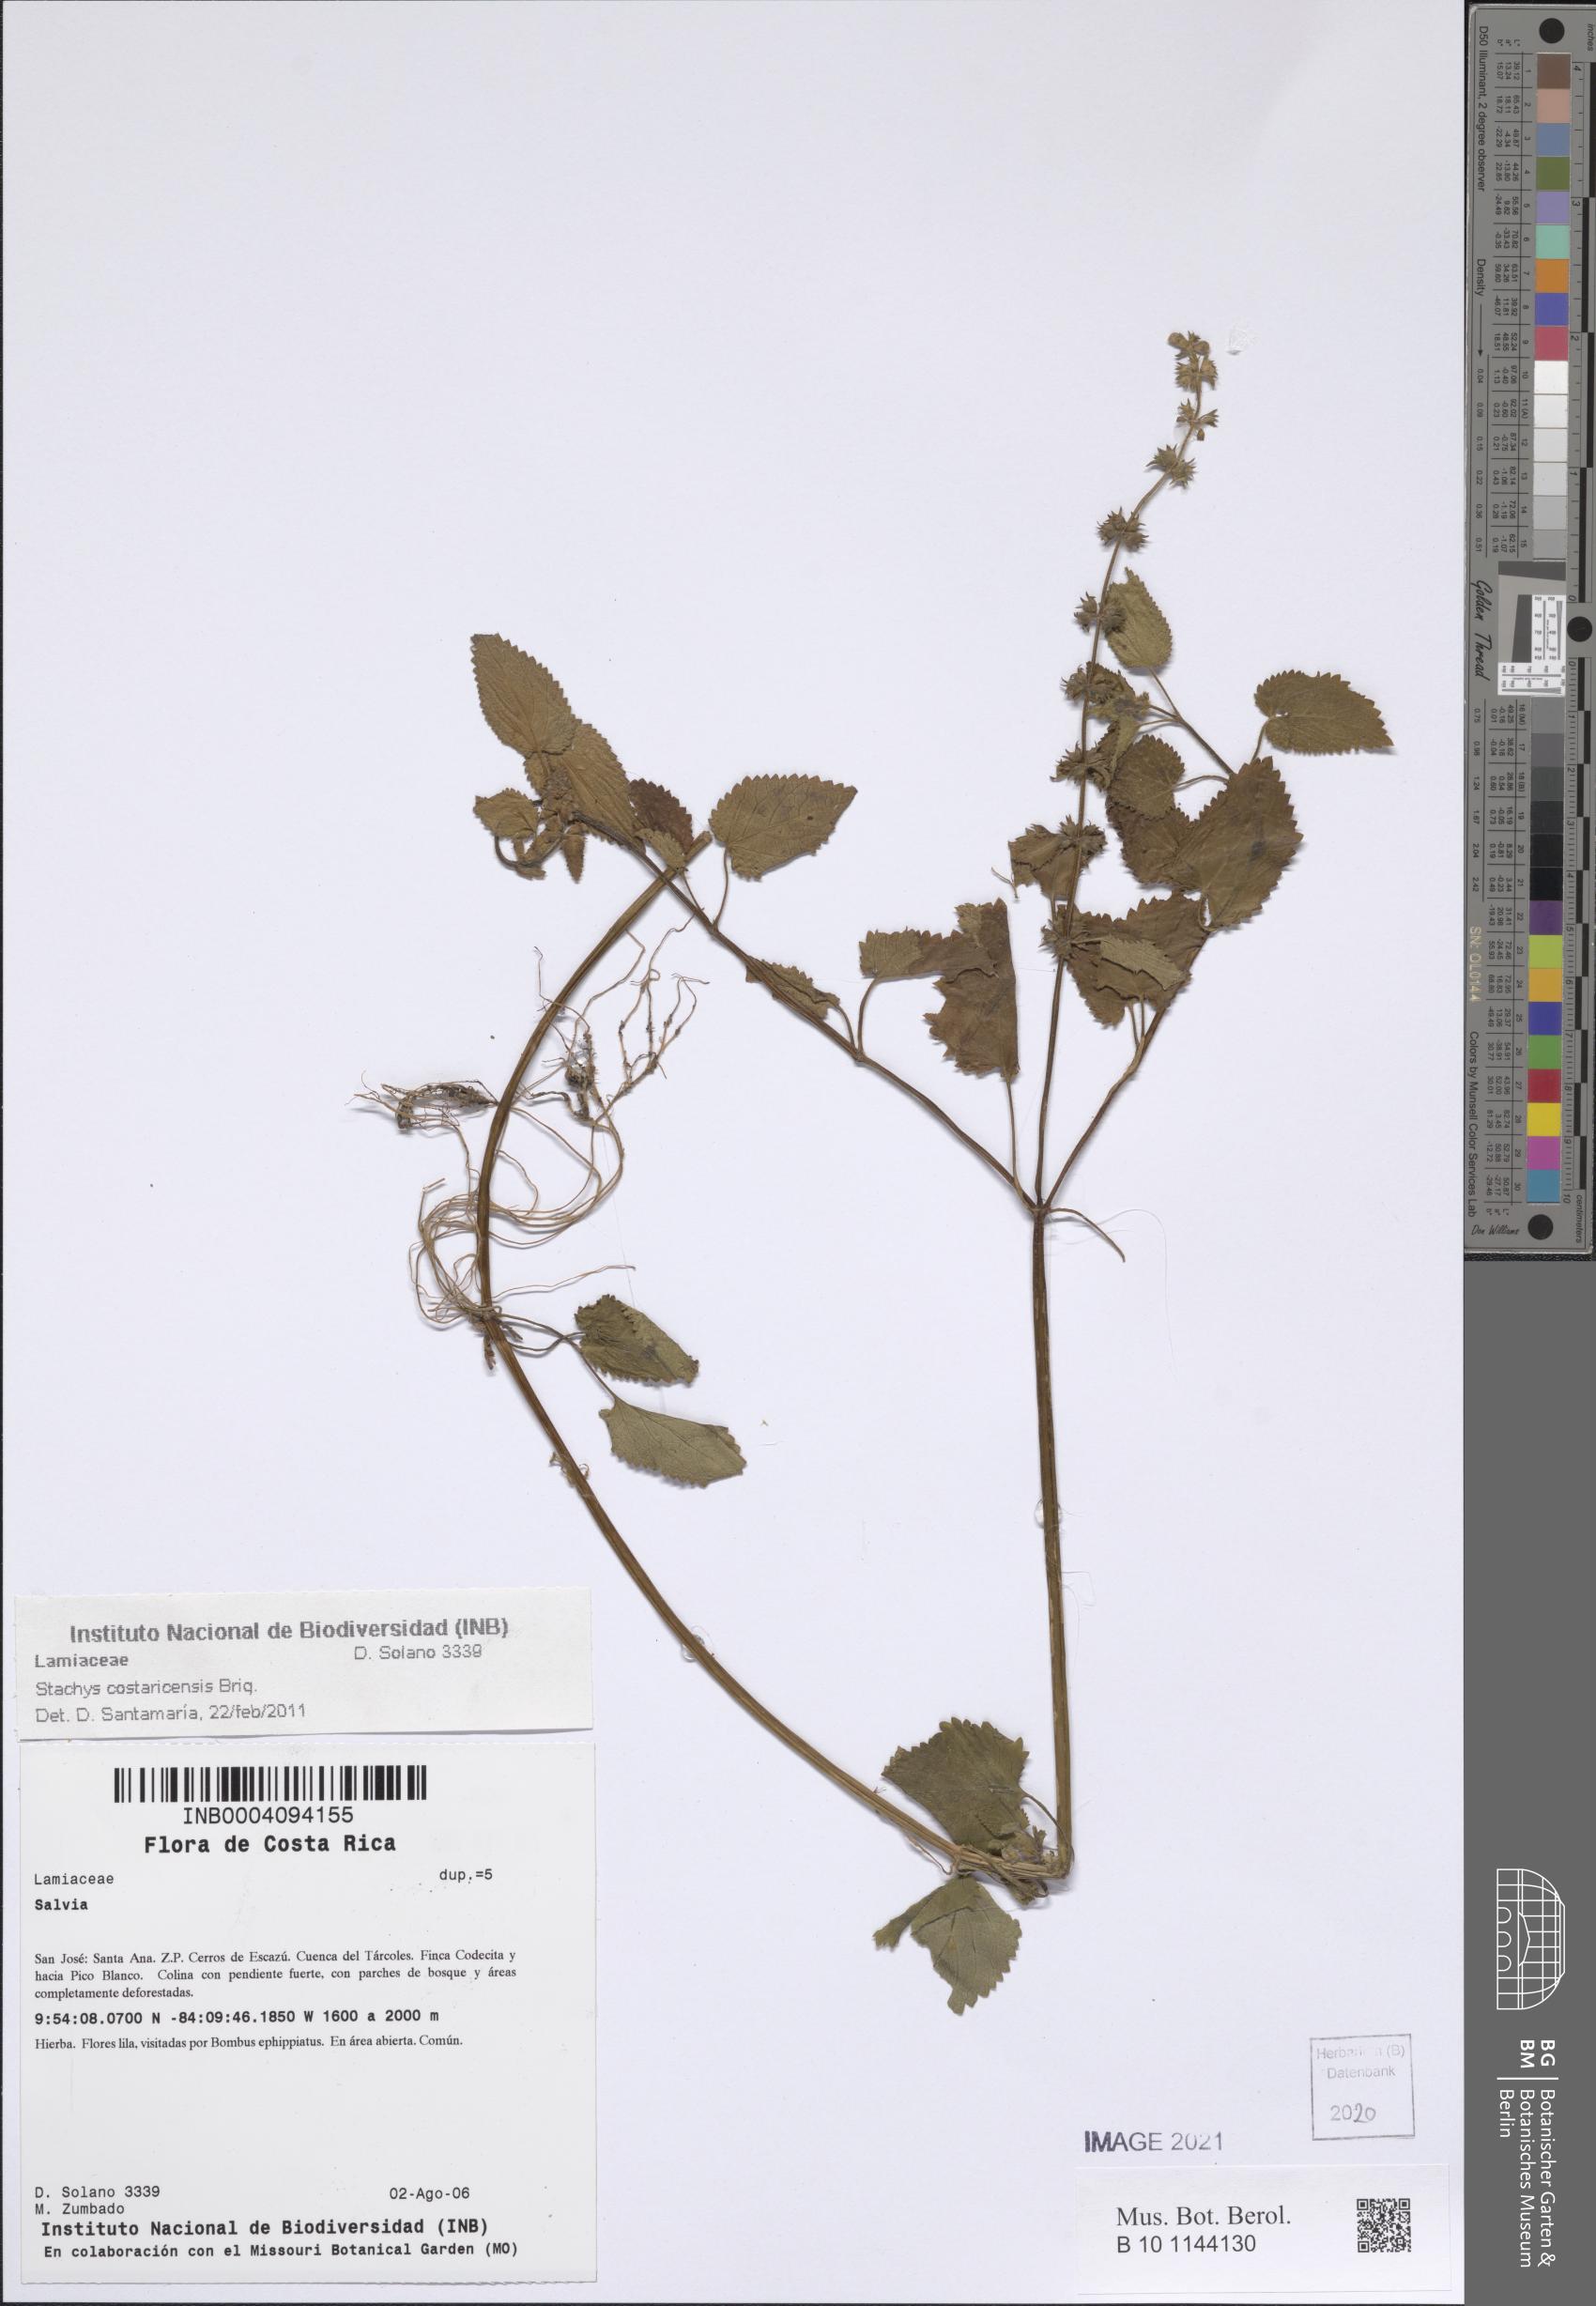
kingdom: Plantae
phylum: Tracheophyta
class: Magnoliopsida
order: Lamiales
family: Lamiaceae
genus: Stachys
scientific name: Stachys costaricensis
